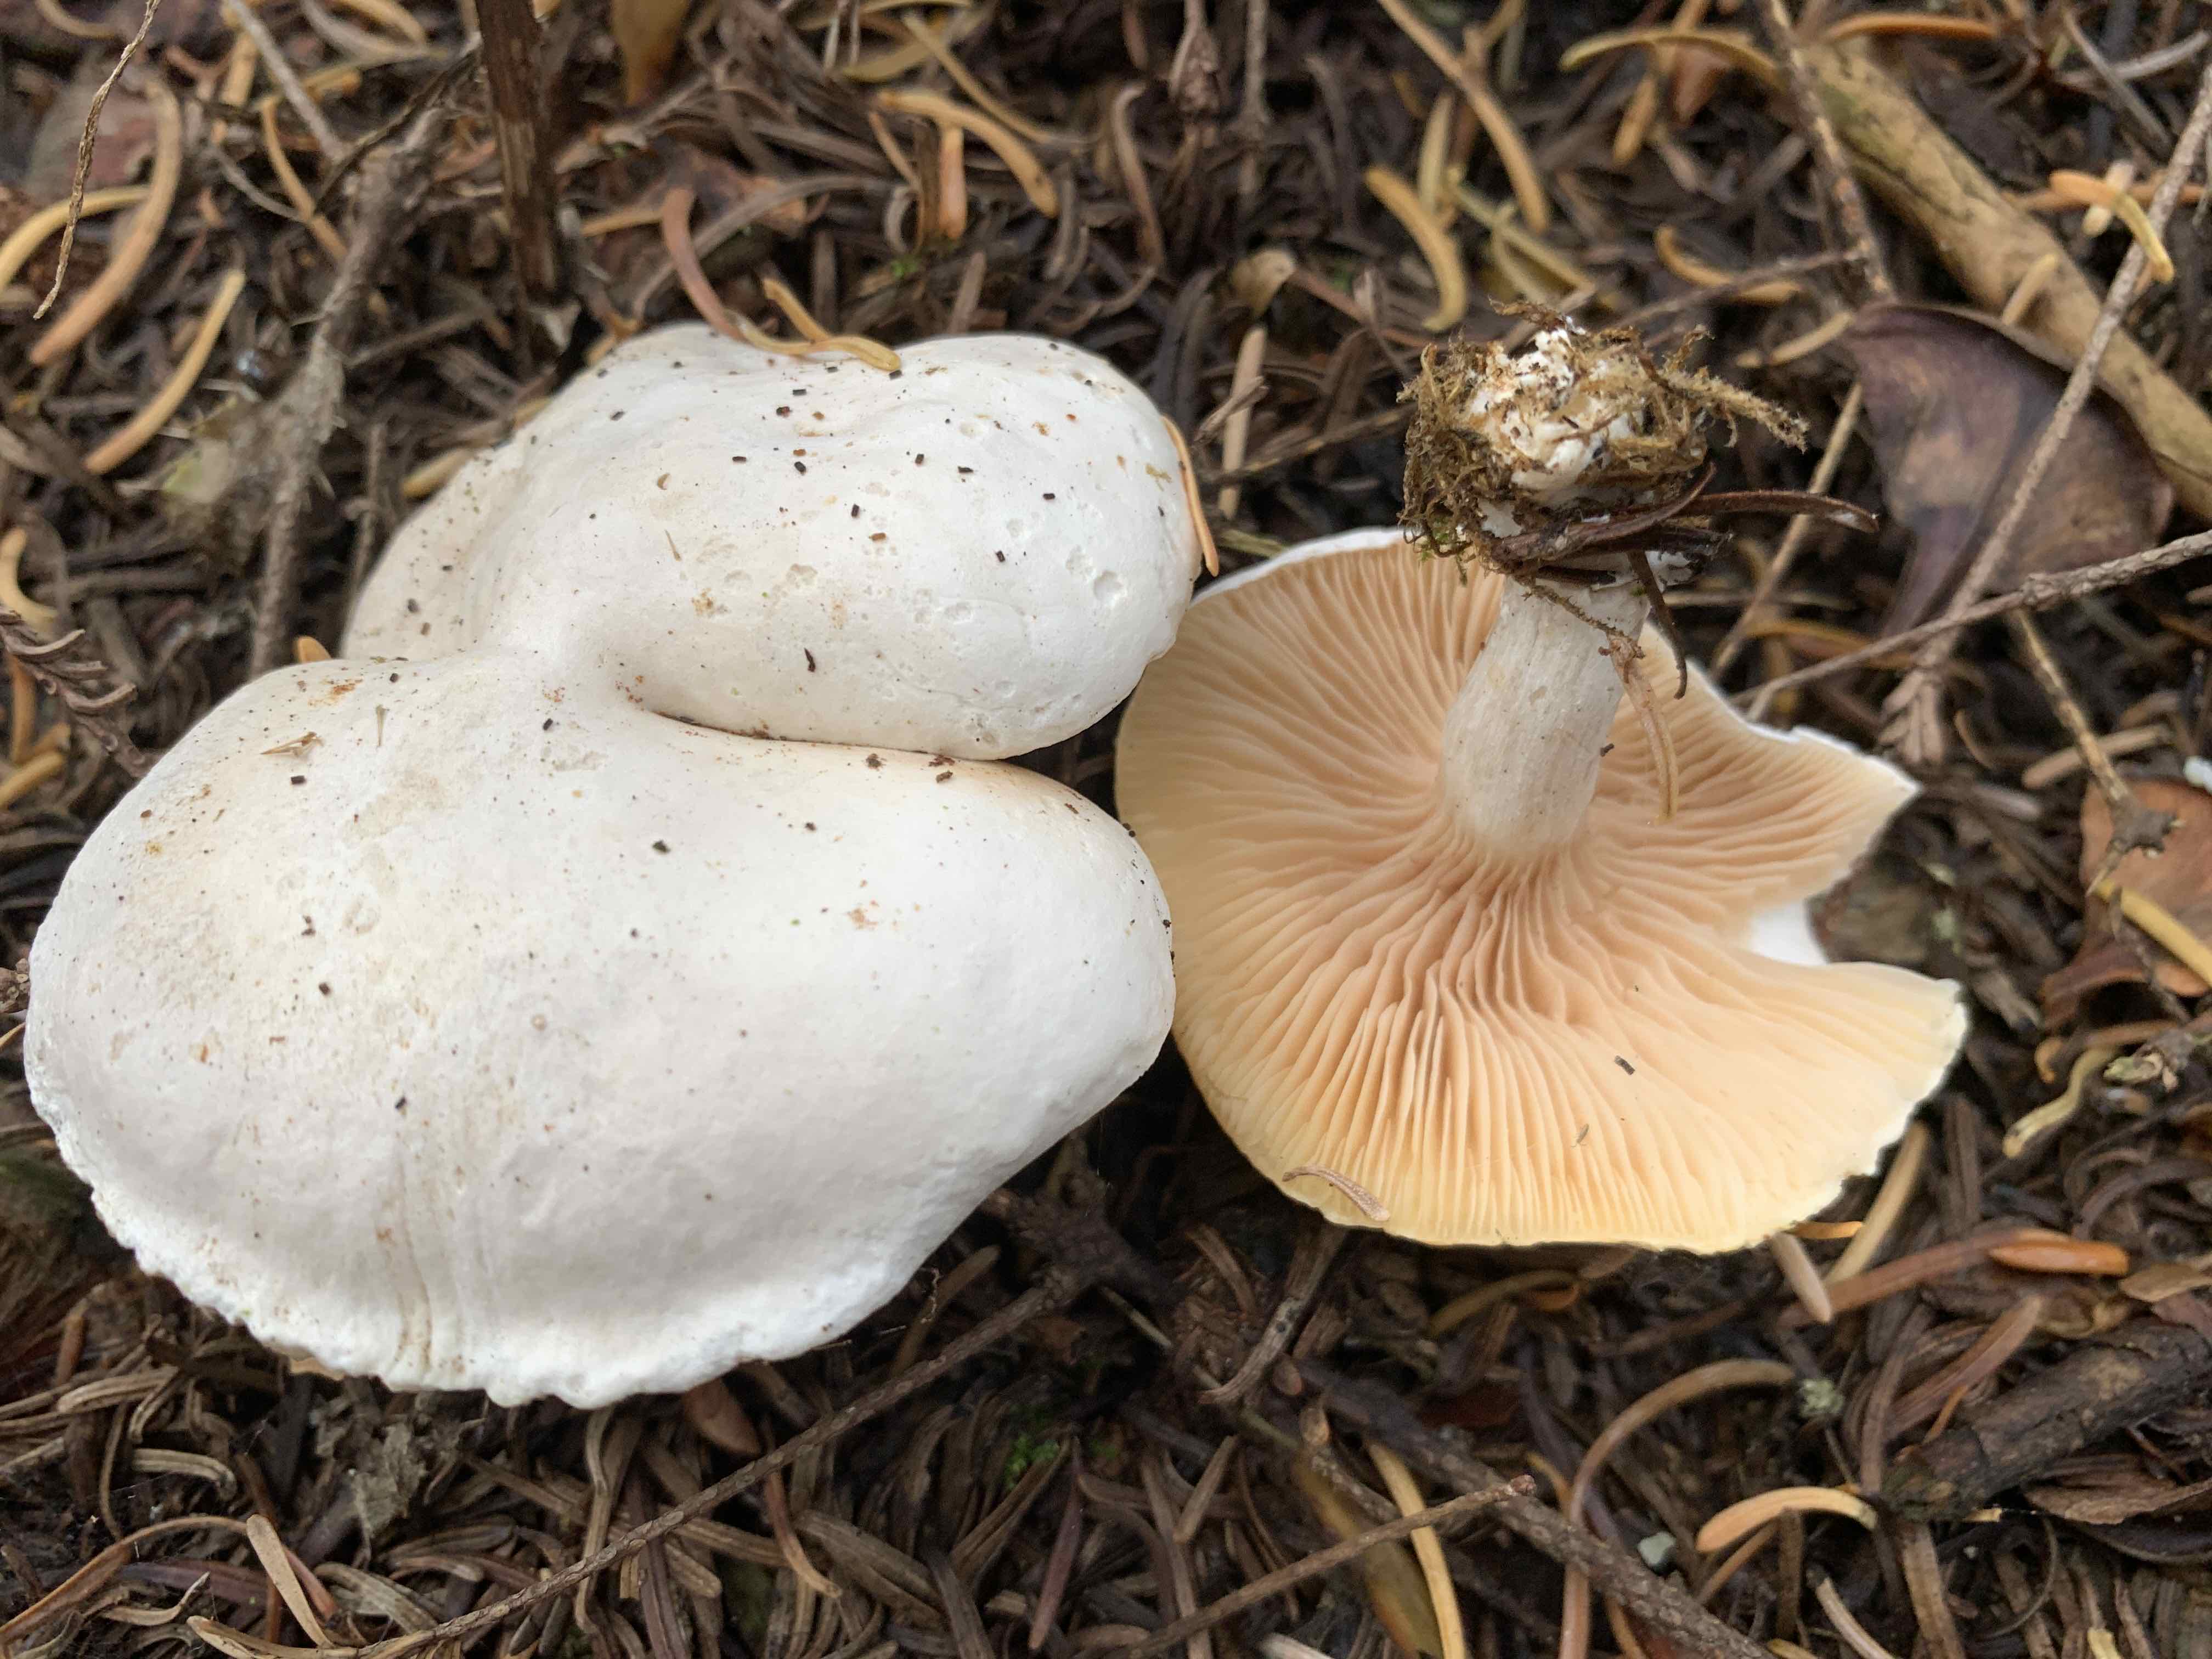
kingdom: Fungi
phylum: Basidiomycota
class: Agaricomycetes
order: Agaricales
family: Entolomataceae
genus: Clitopilus
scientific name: Clitopilus prunulus
